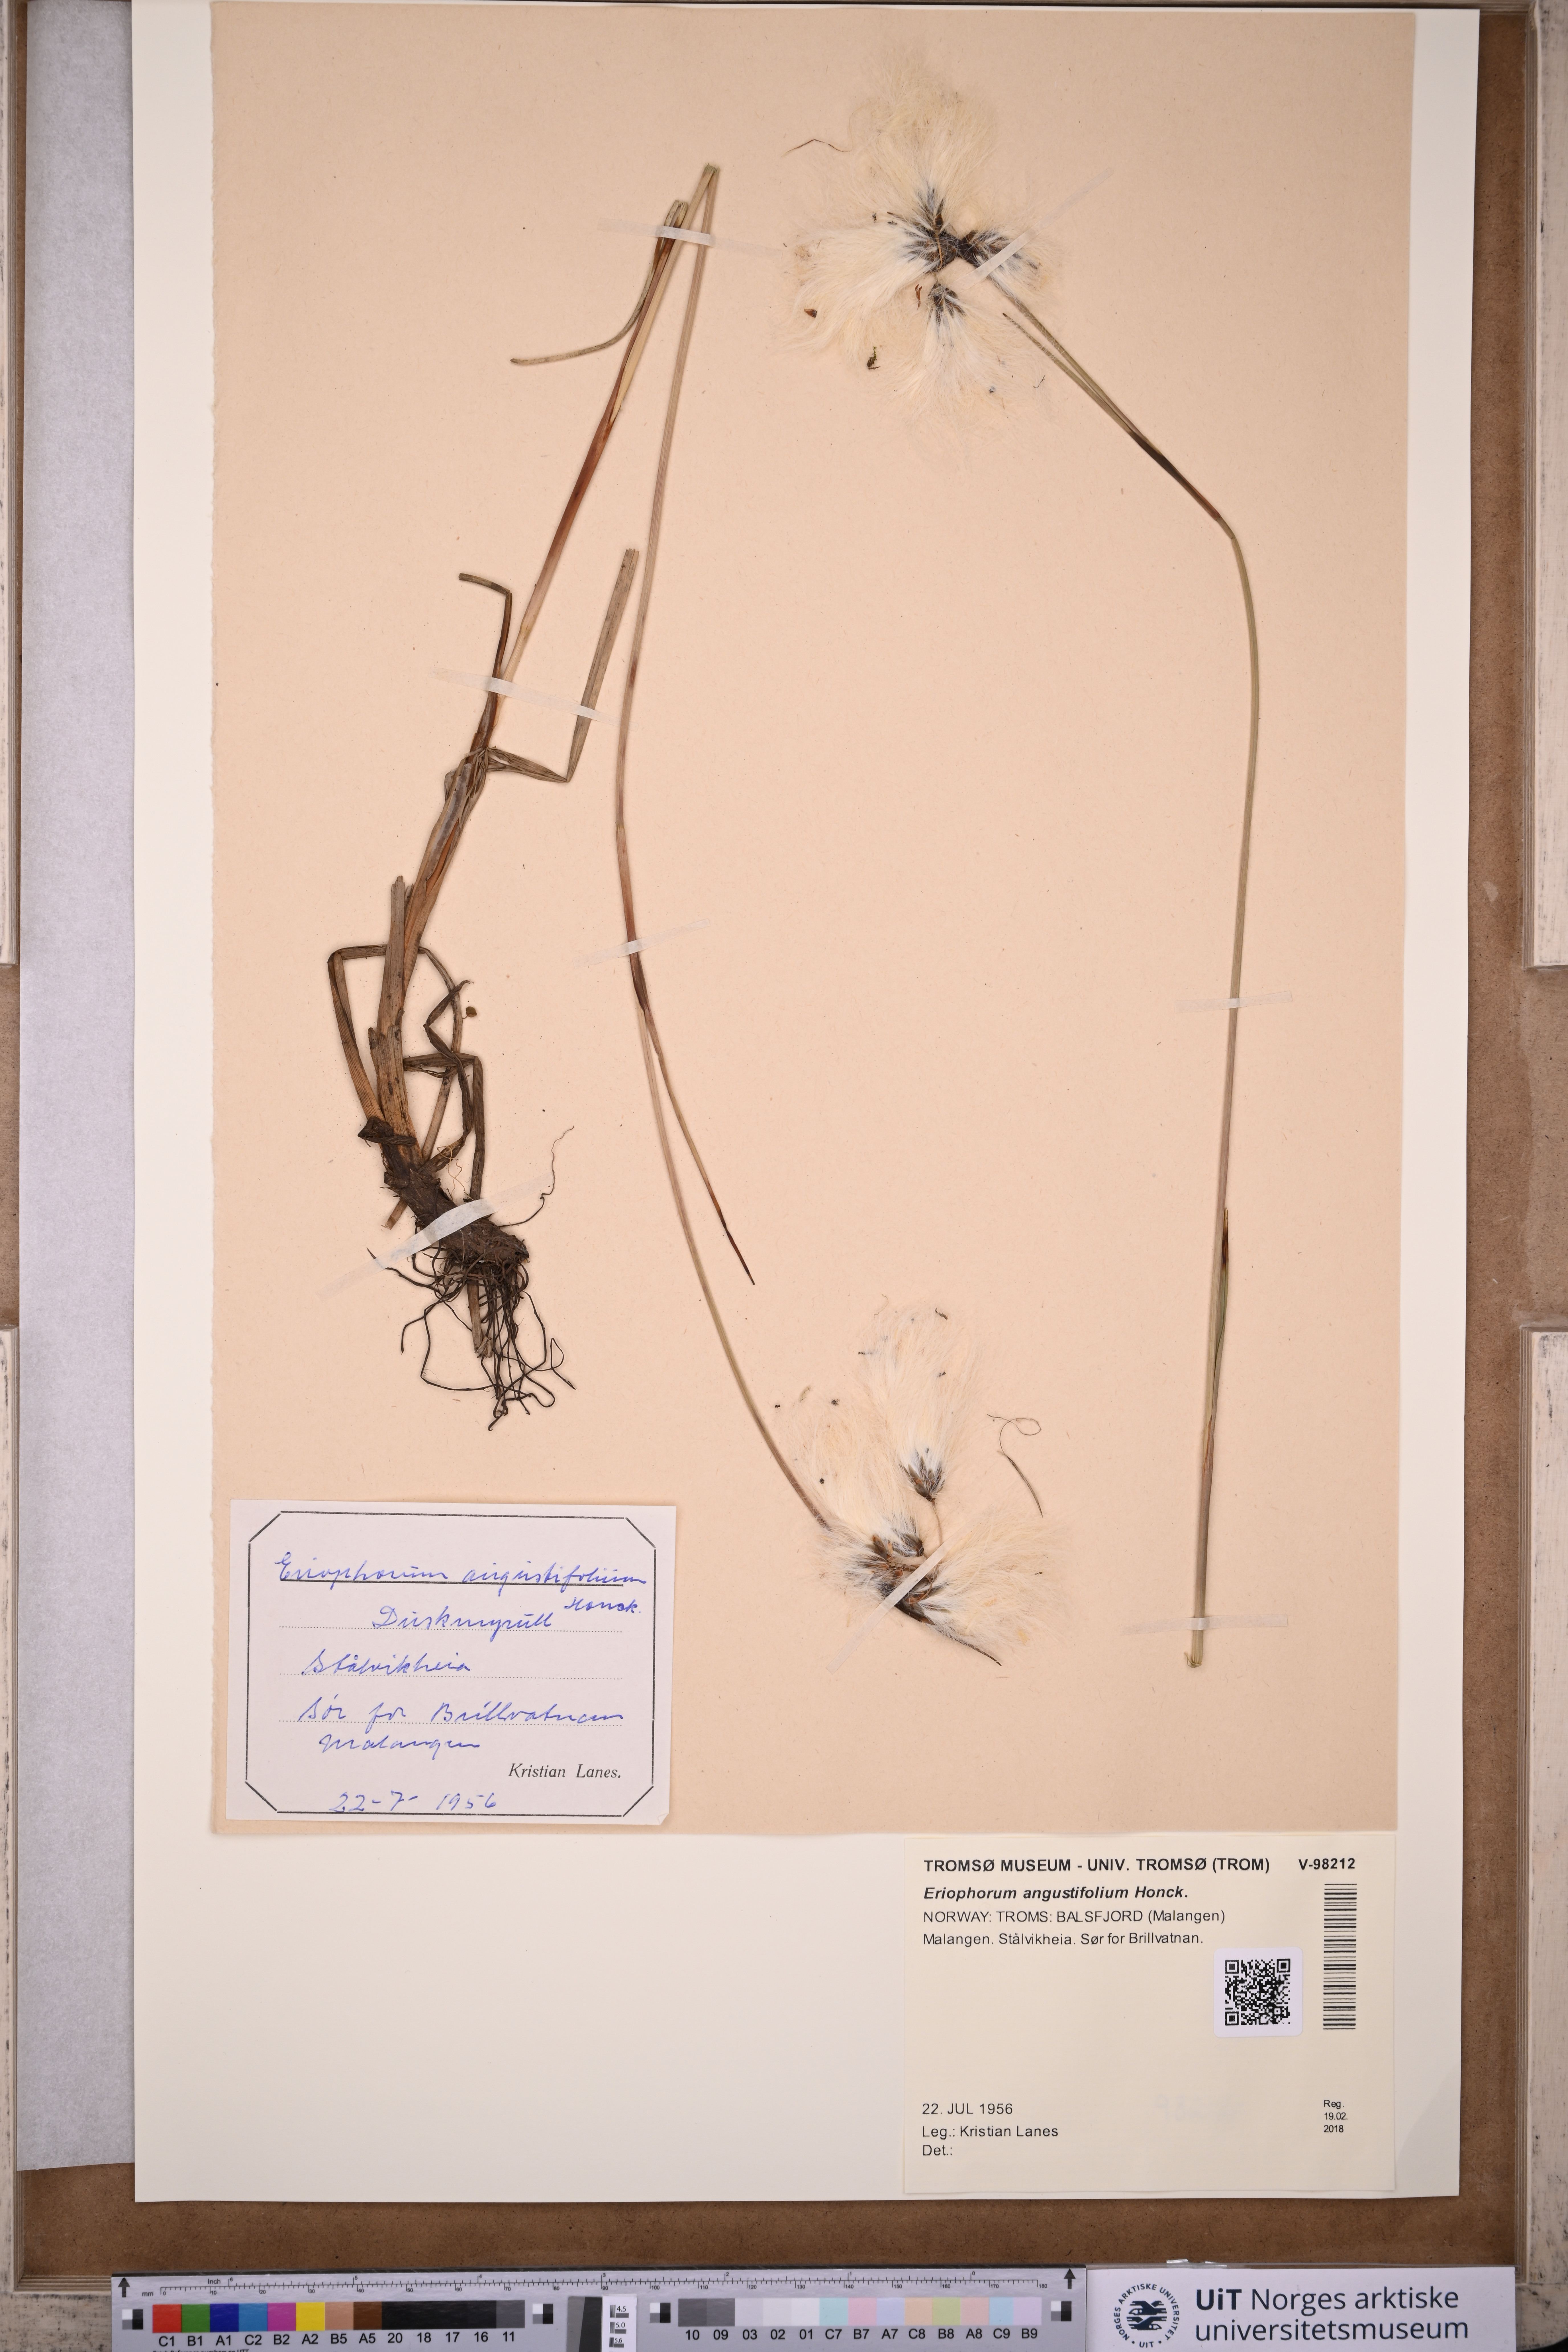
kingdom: Plantae
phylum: Tracheophyta
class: Liliopsida
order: Poales
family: Cyperaceae
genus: Eriophorum
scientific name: Eriophorum angustifolium
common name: Common cottongrass
